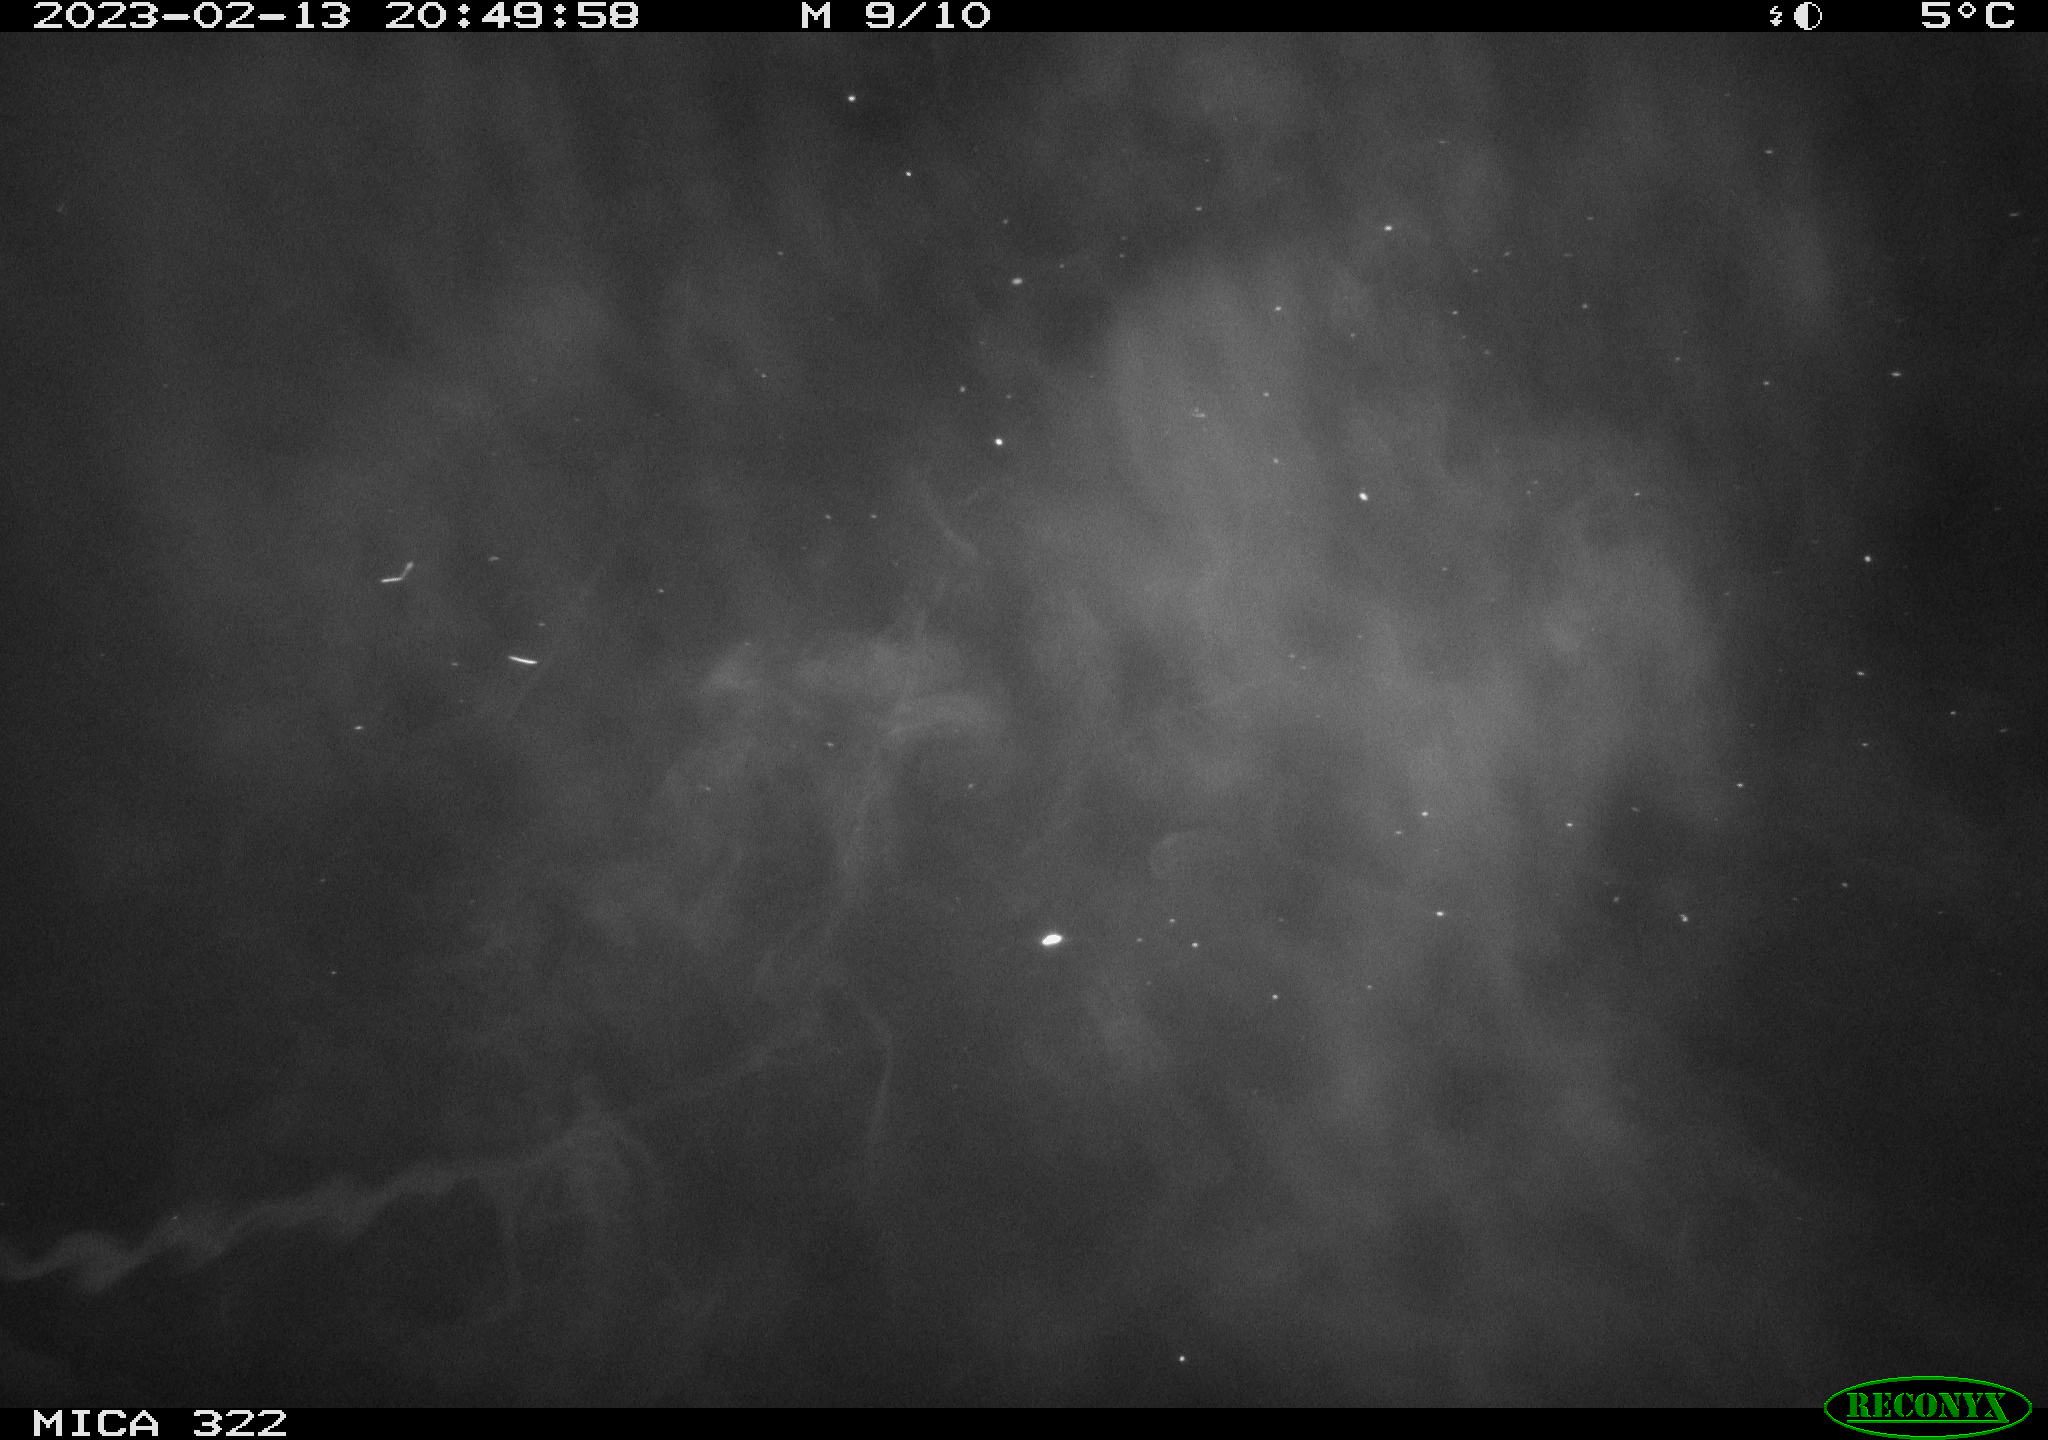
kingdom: Animalia
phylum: Chordata
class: Mammalia
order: Rodentia
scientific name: Rodentia
